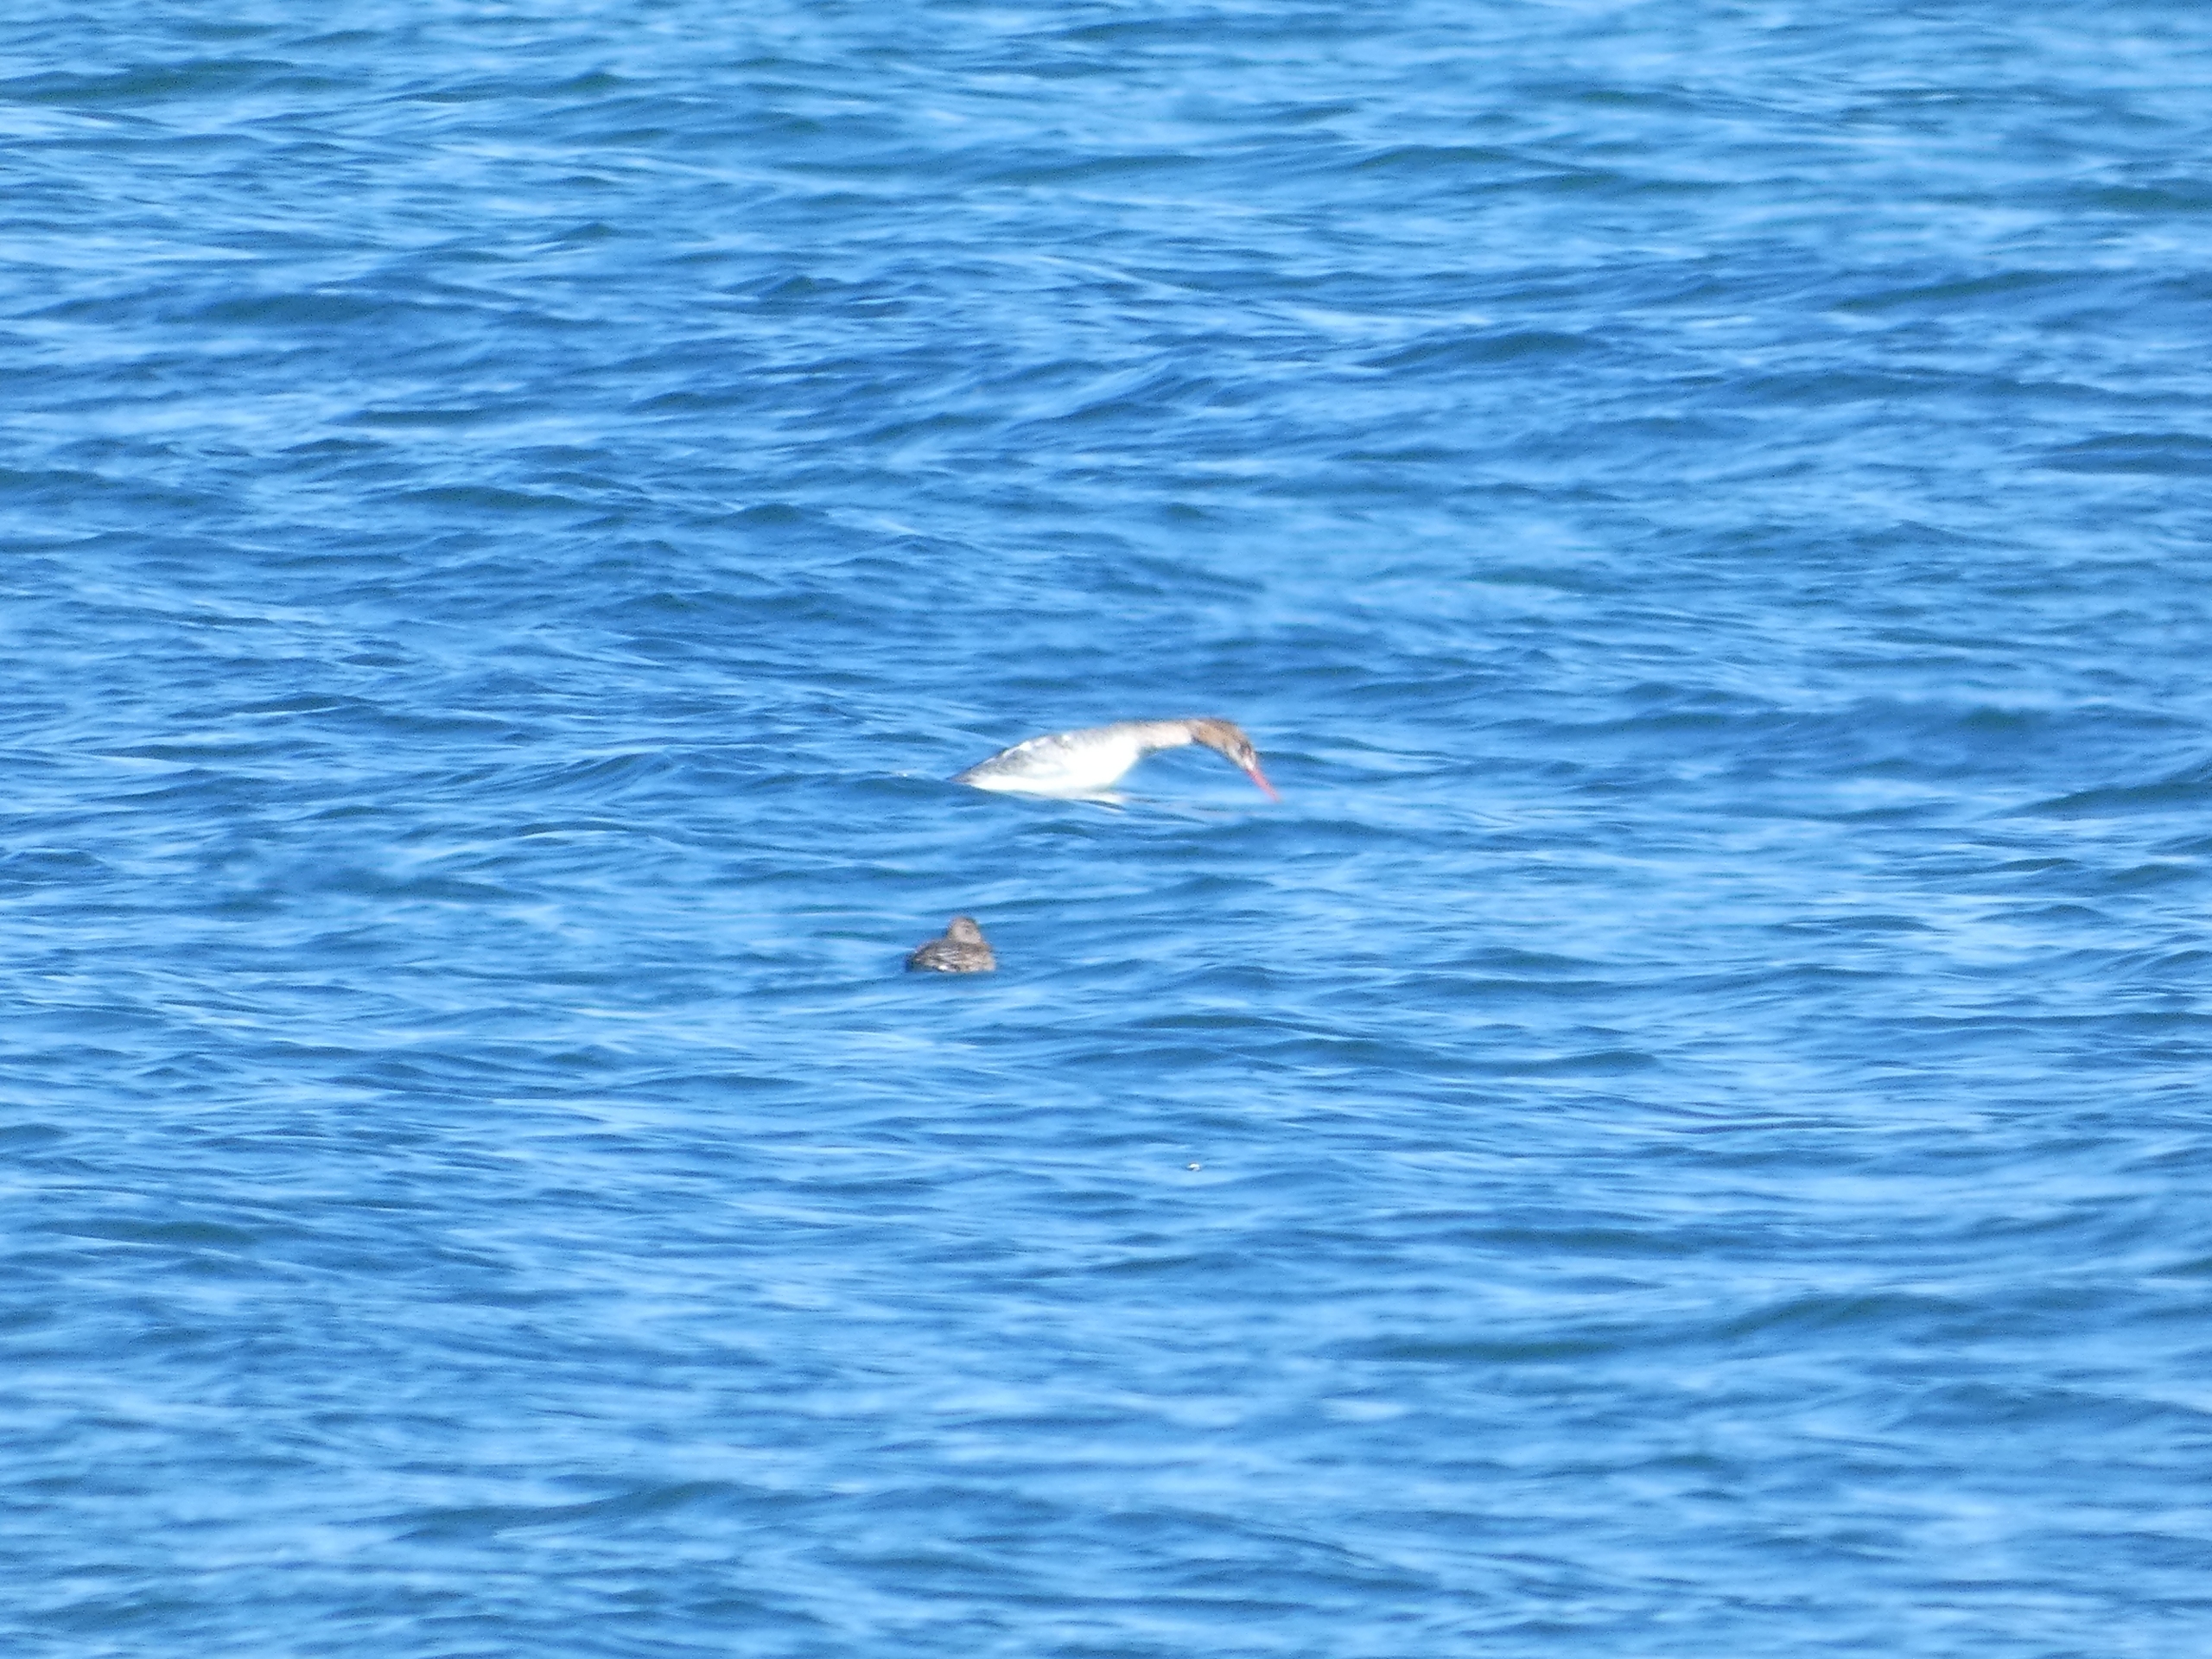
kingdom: Animalia
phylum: Chordata
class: Aves
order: Anseriformes
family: Anatidae
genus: Mergus
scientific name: Mergus serrator
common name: Toppet skallesluger
